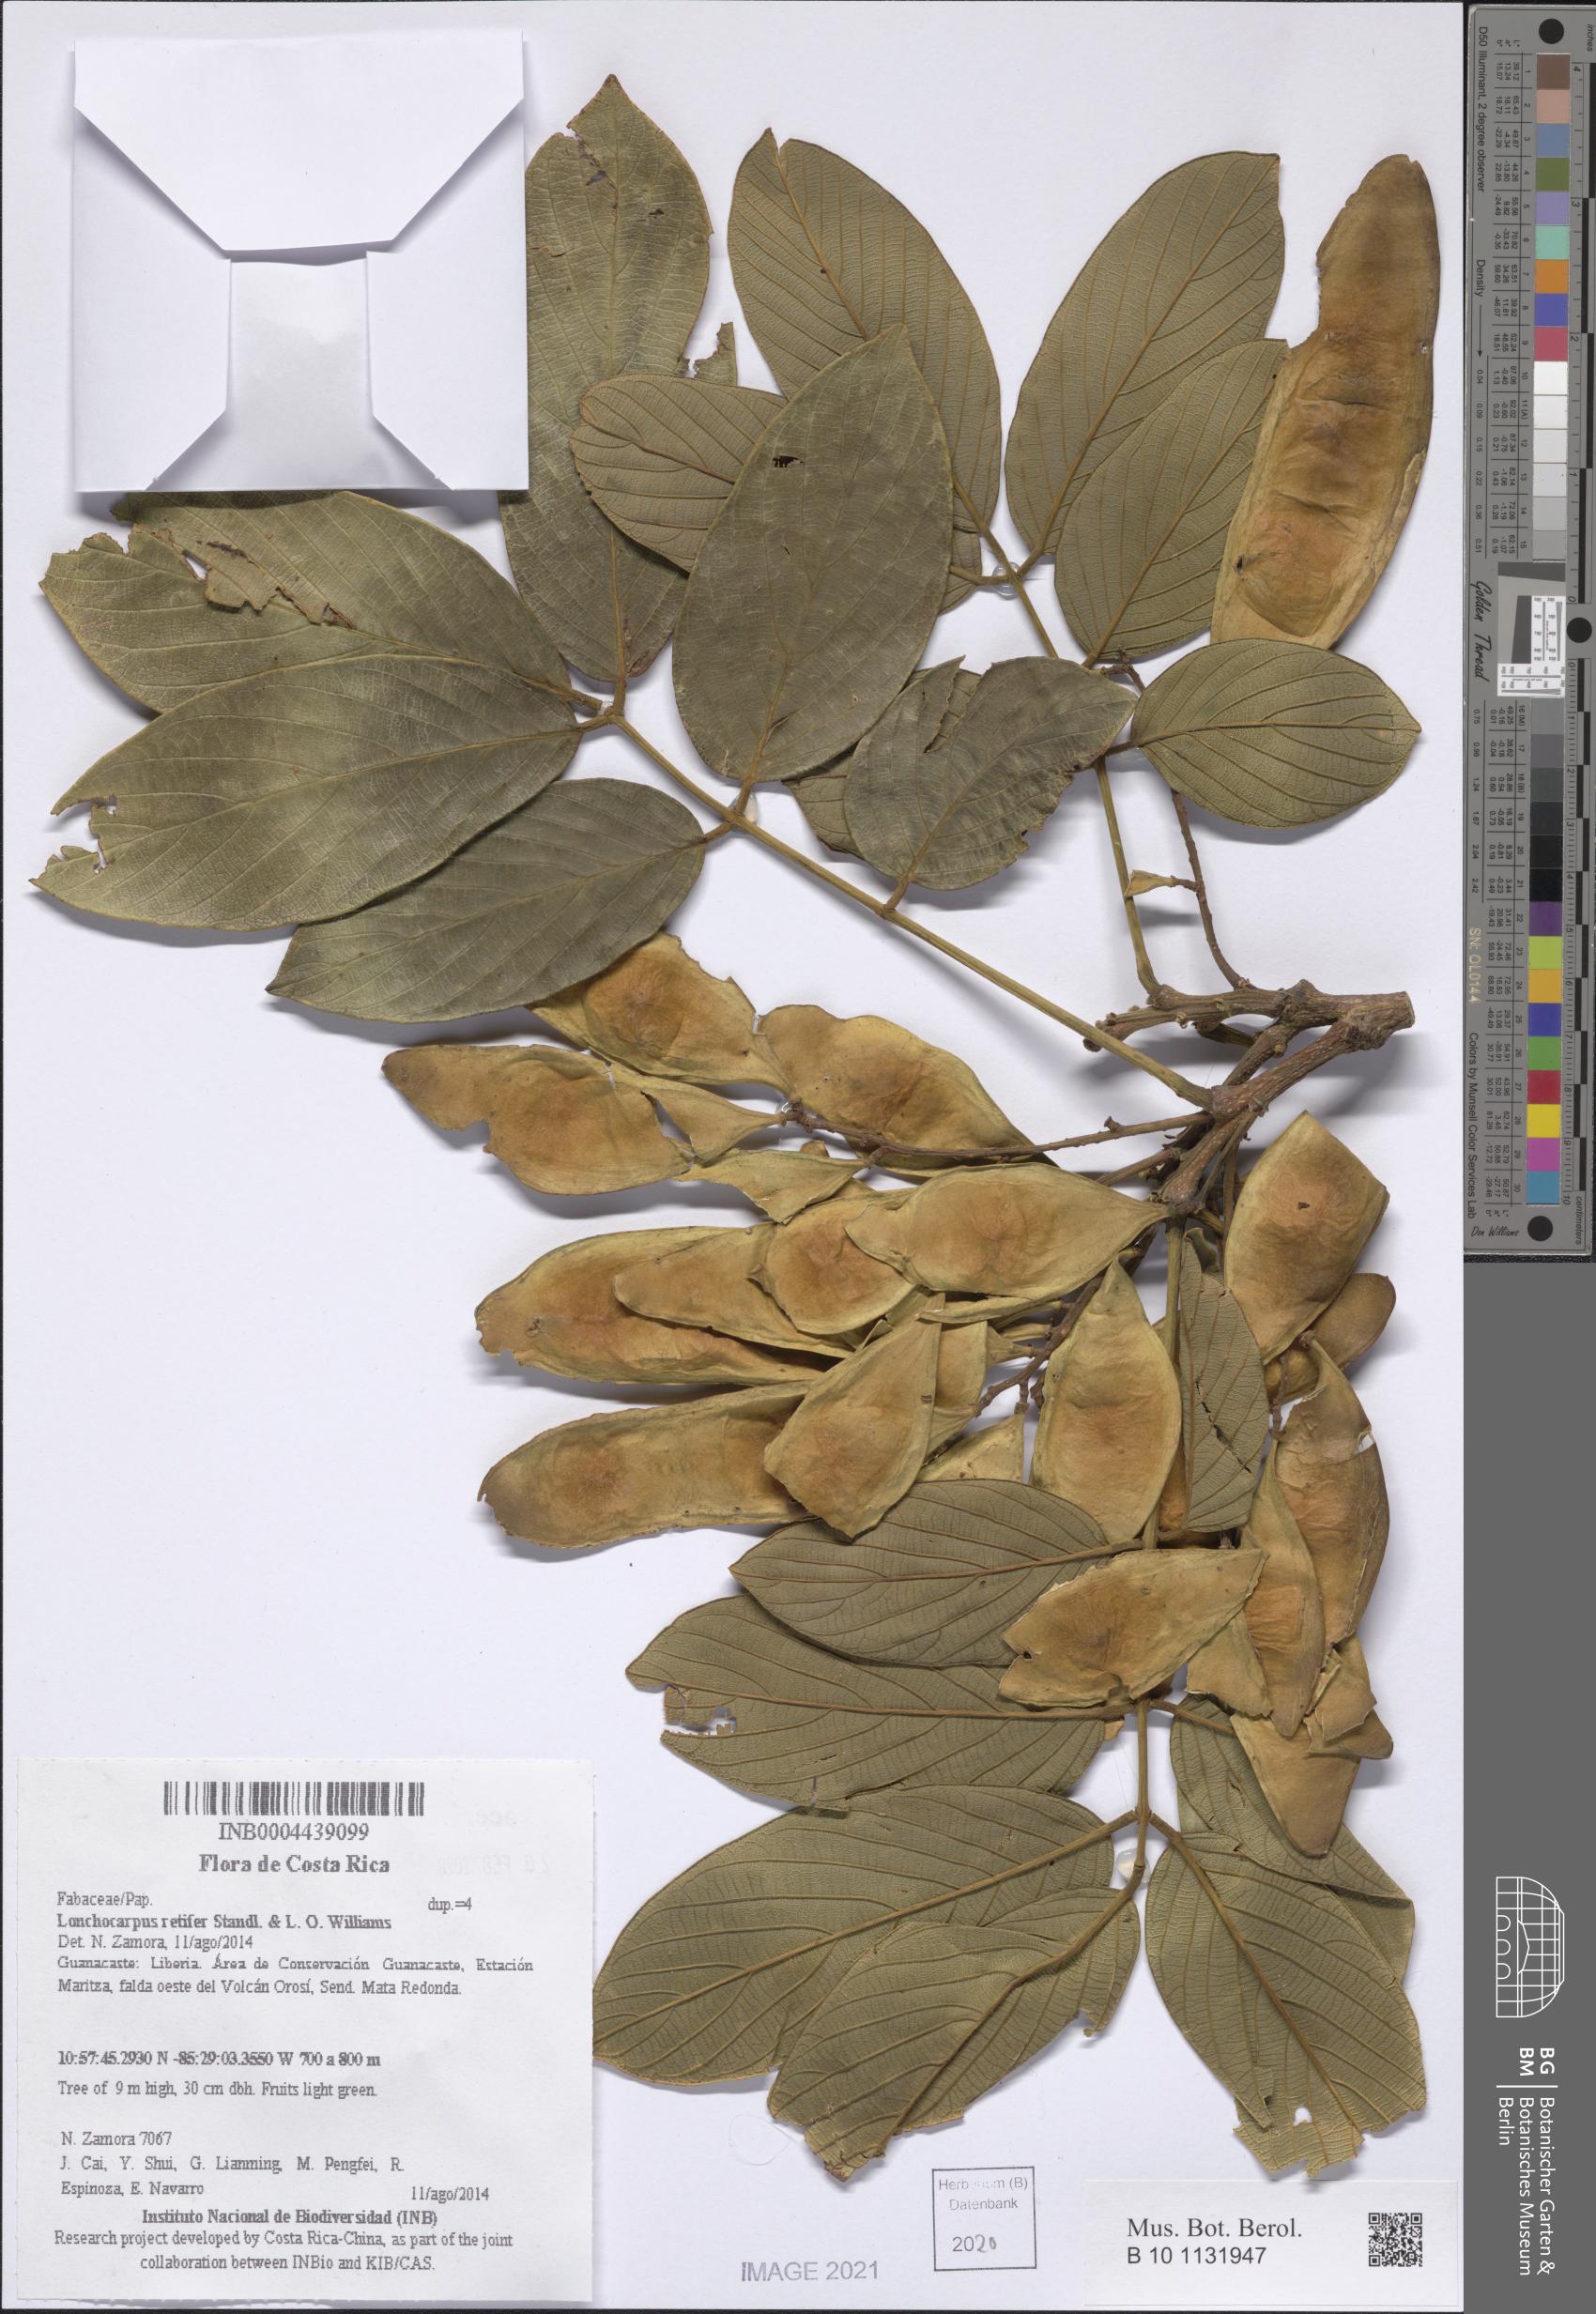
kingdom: Plantae
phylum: Tracheophyta
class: Magnoliopsida
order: Fabales
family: Fabaceae
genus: Lonchocarpus
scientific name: Lonchocarpus retifer
